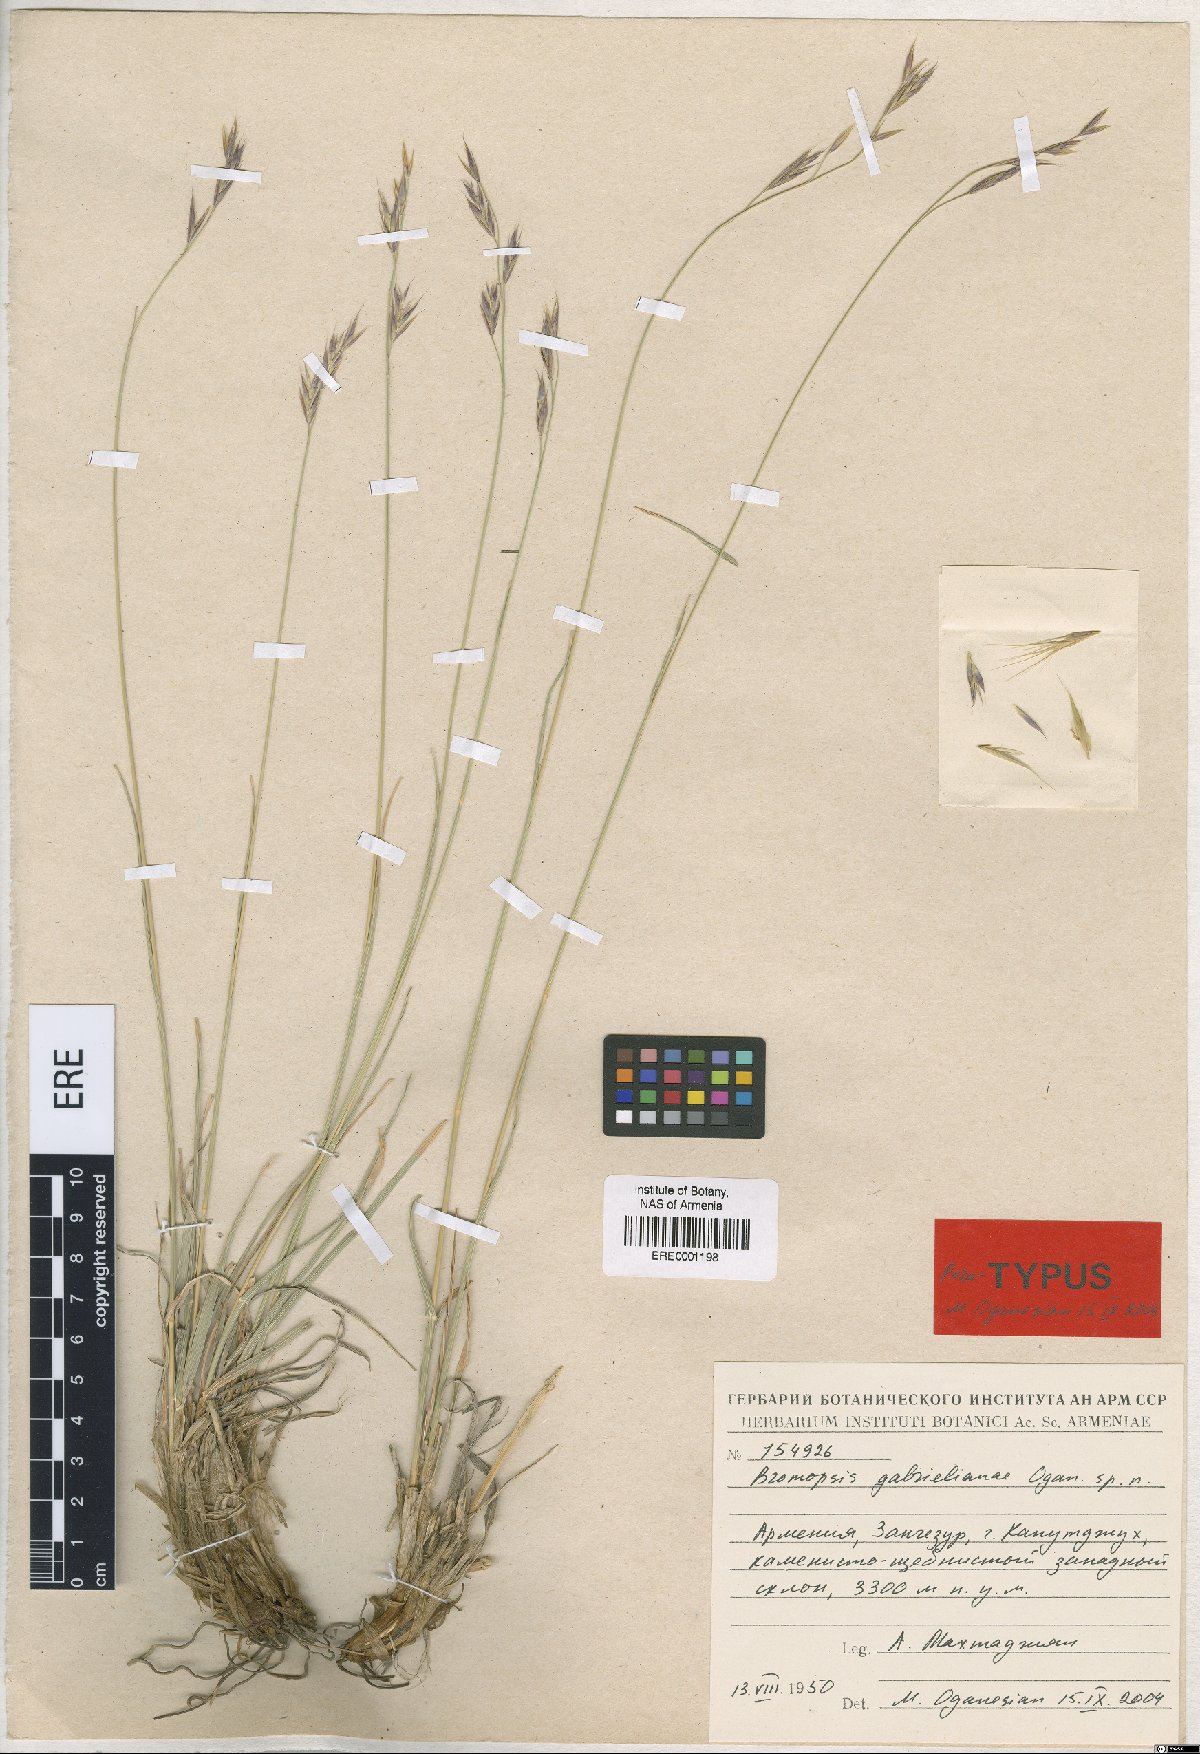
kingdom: Plantae
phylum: Tracheophyta
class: Liliopsida
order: Poales
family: Poaceae
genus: Bromus
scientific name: Bromus tomentosus
